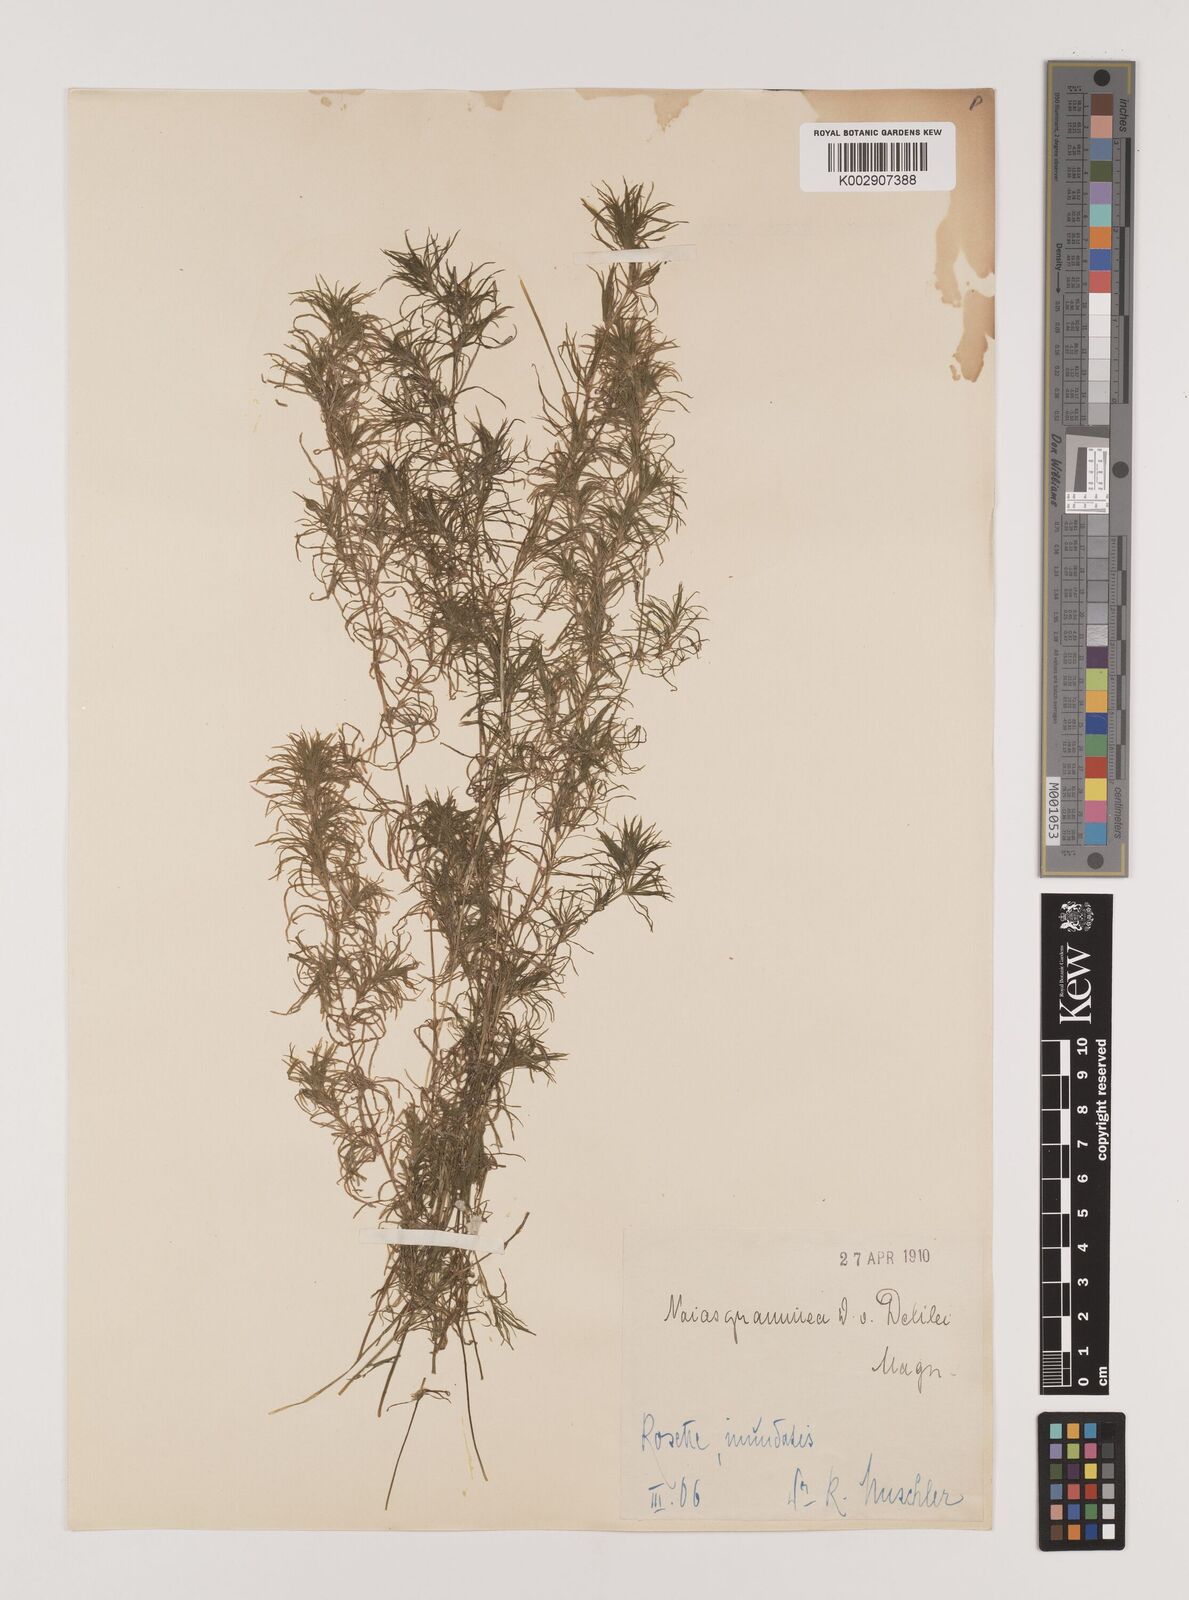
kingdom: Plantae
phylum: Tracheophyta
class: Liliopsida
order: Alismatales
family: Hydrocharitaceae
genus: Najas
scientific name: Najas graminea
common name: Ricefield waternymph
